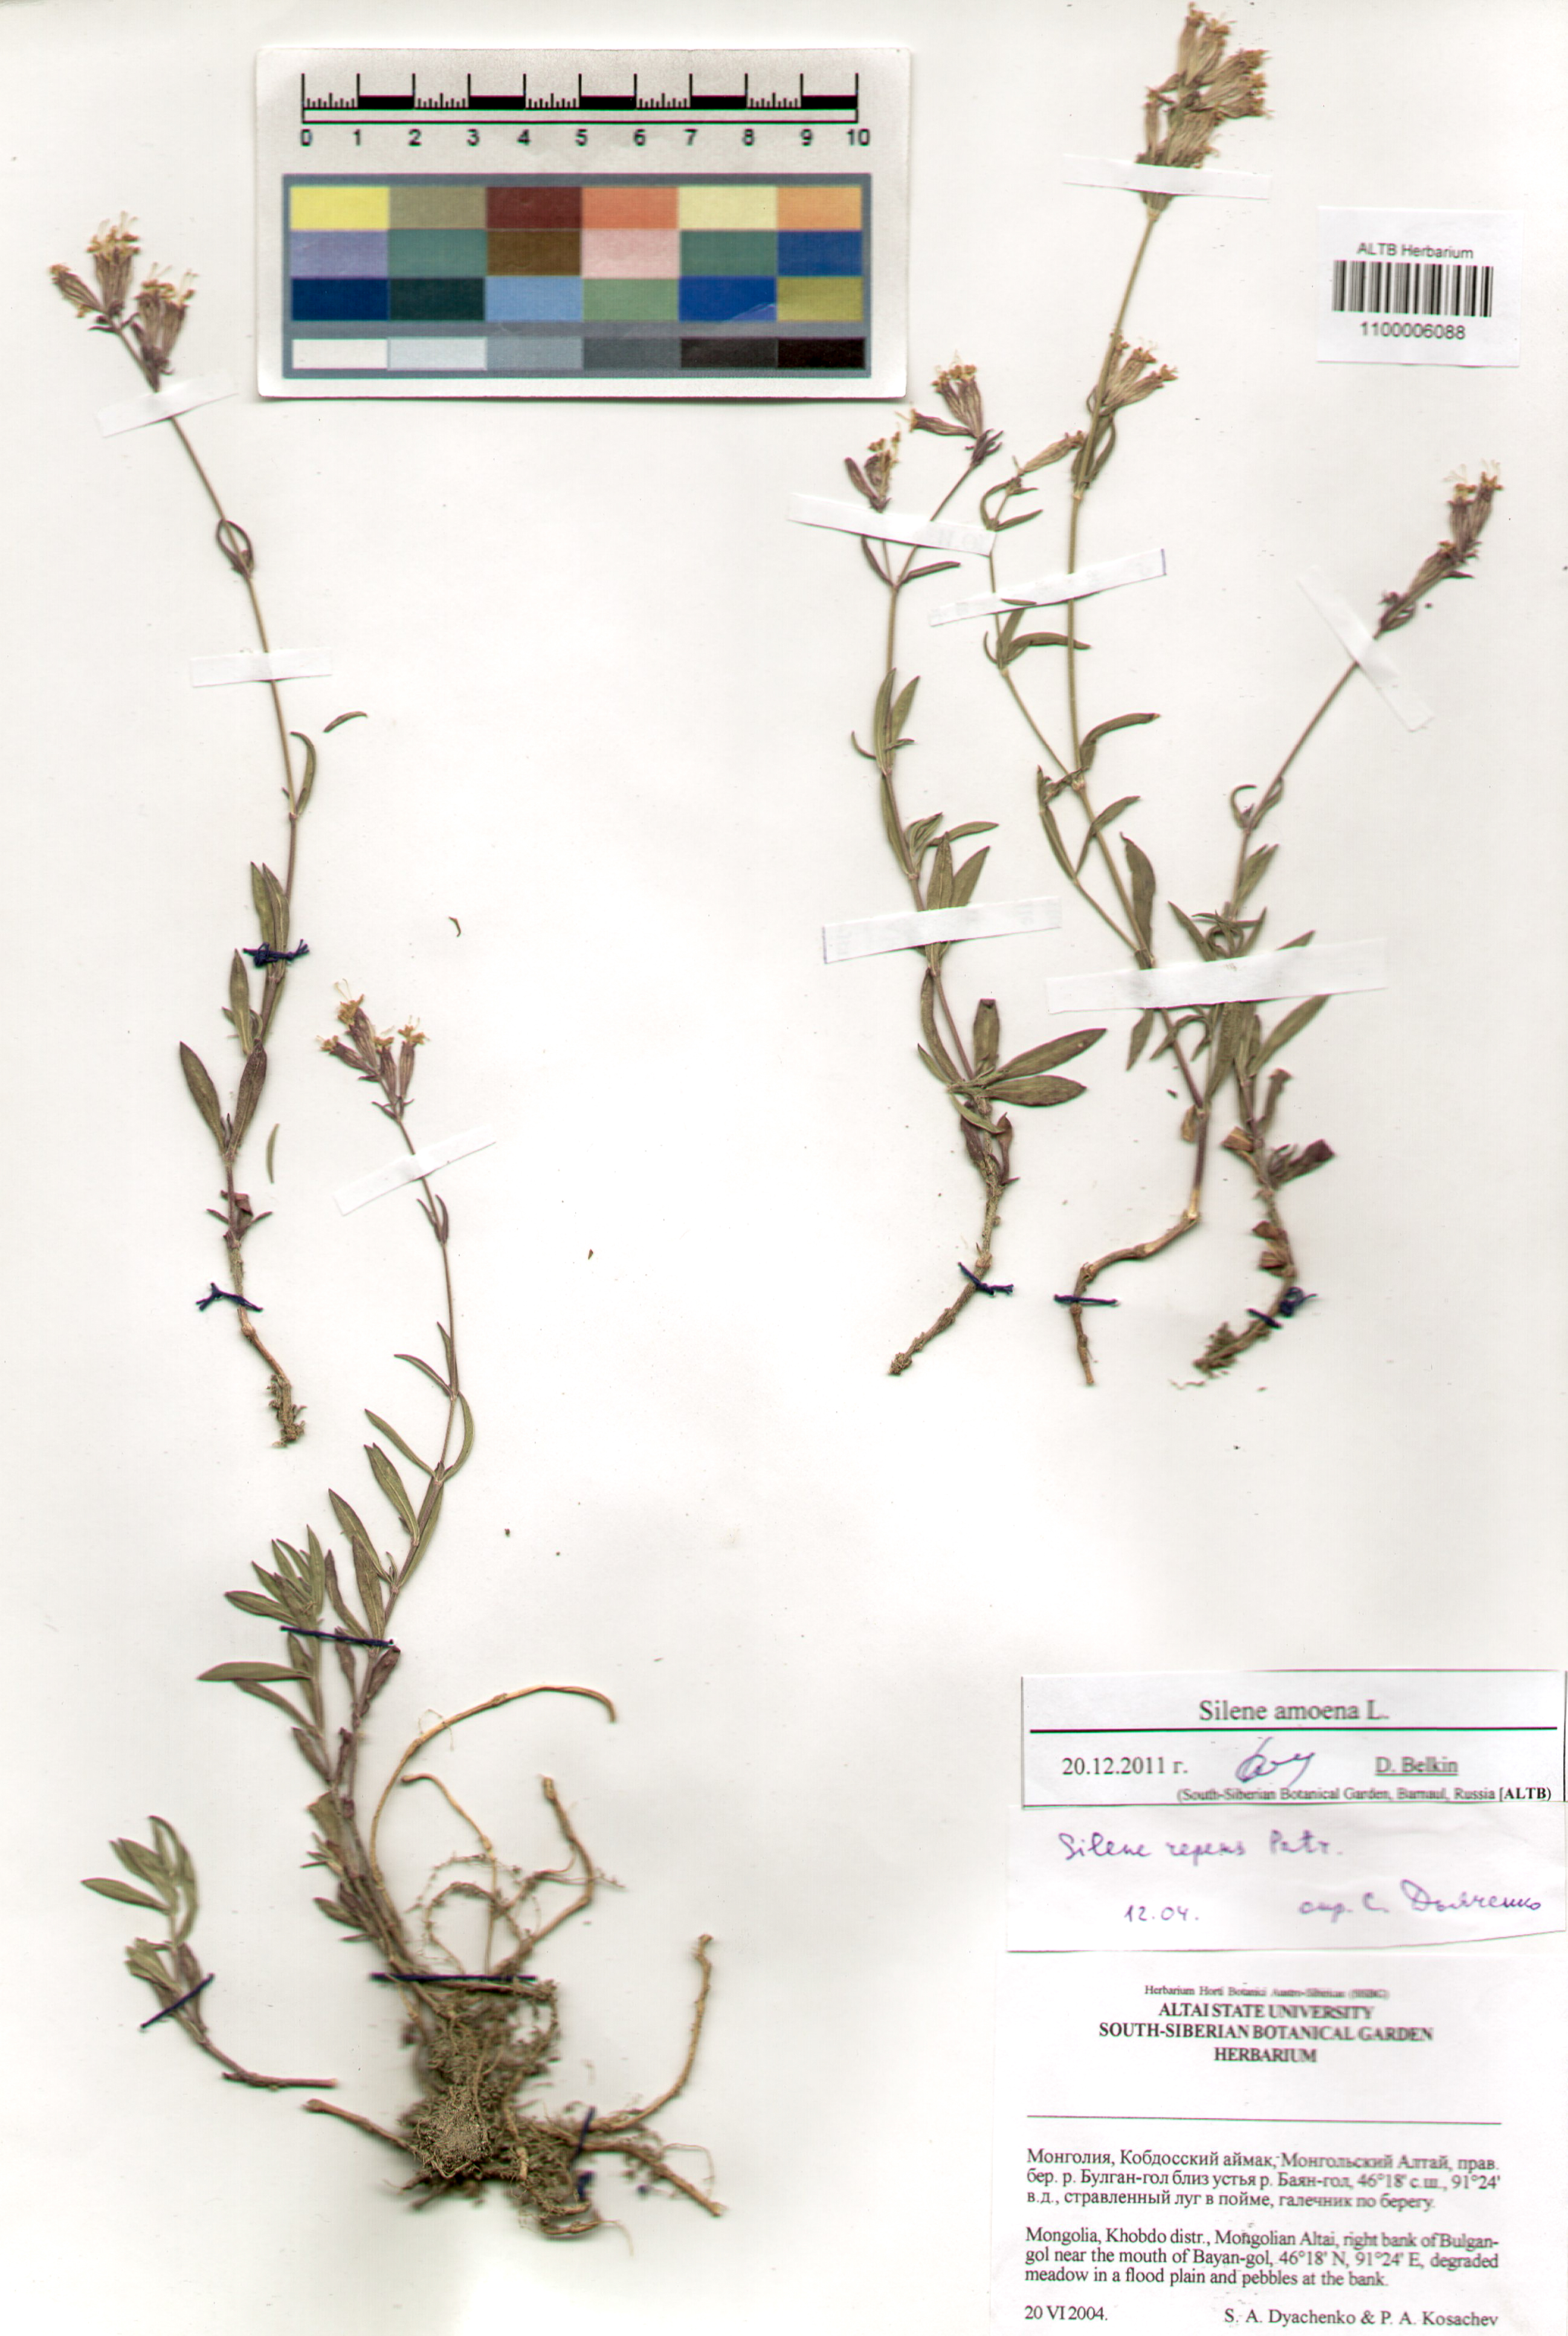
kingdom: Plantae
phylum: Tracheophyta
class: Magnoliopsida
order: Caryophyllales
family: Caryophyllaceae
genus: Silene
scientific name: Silene amoena
